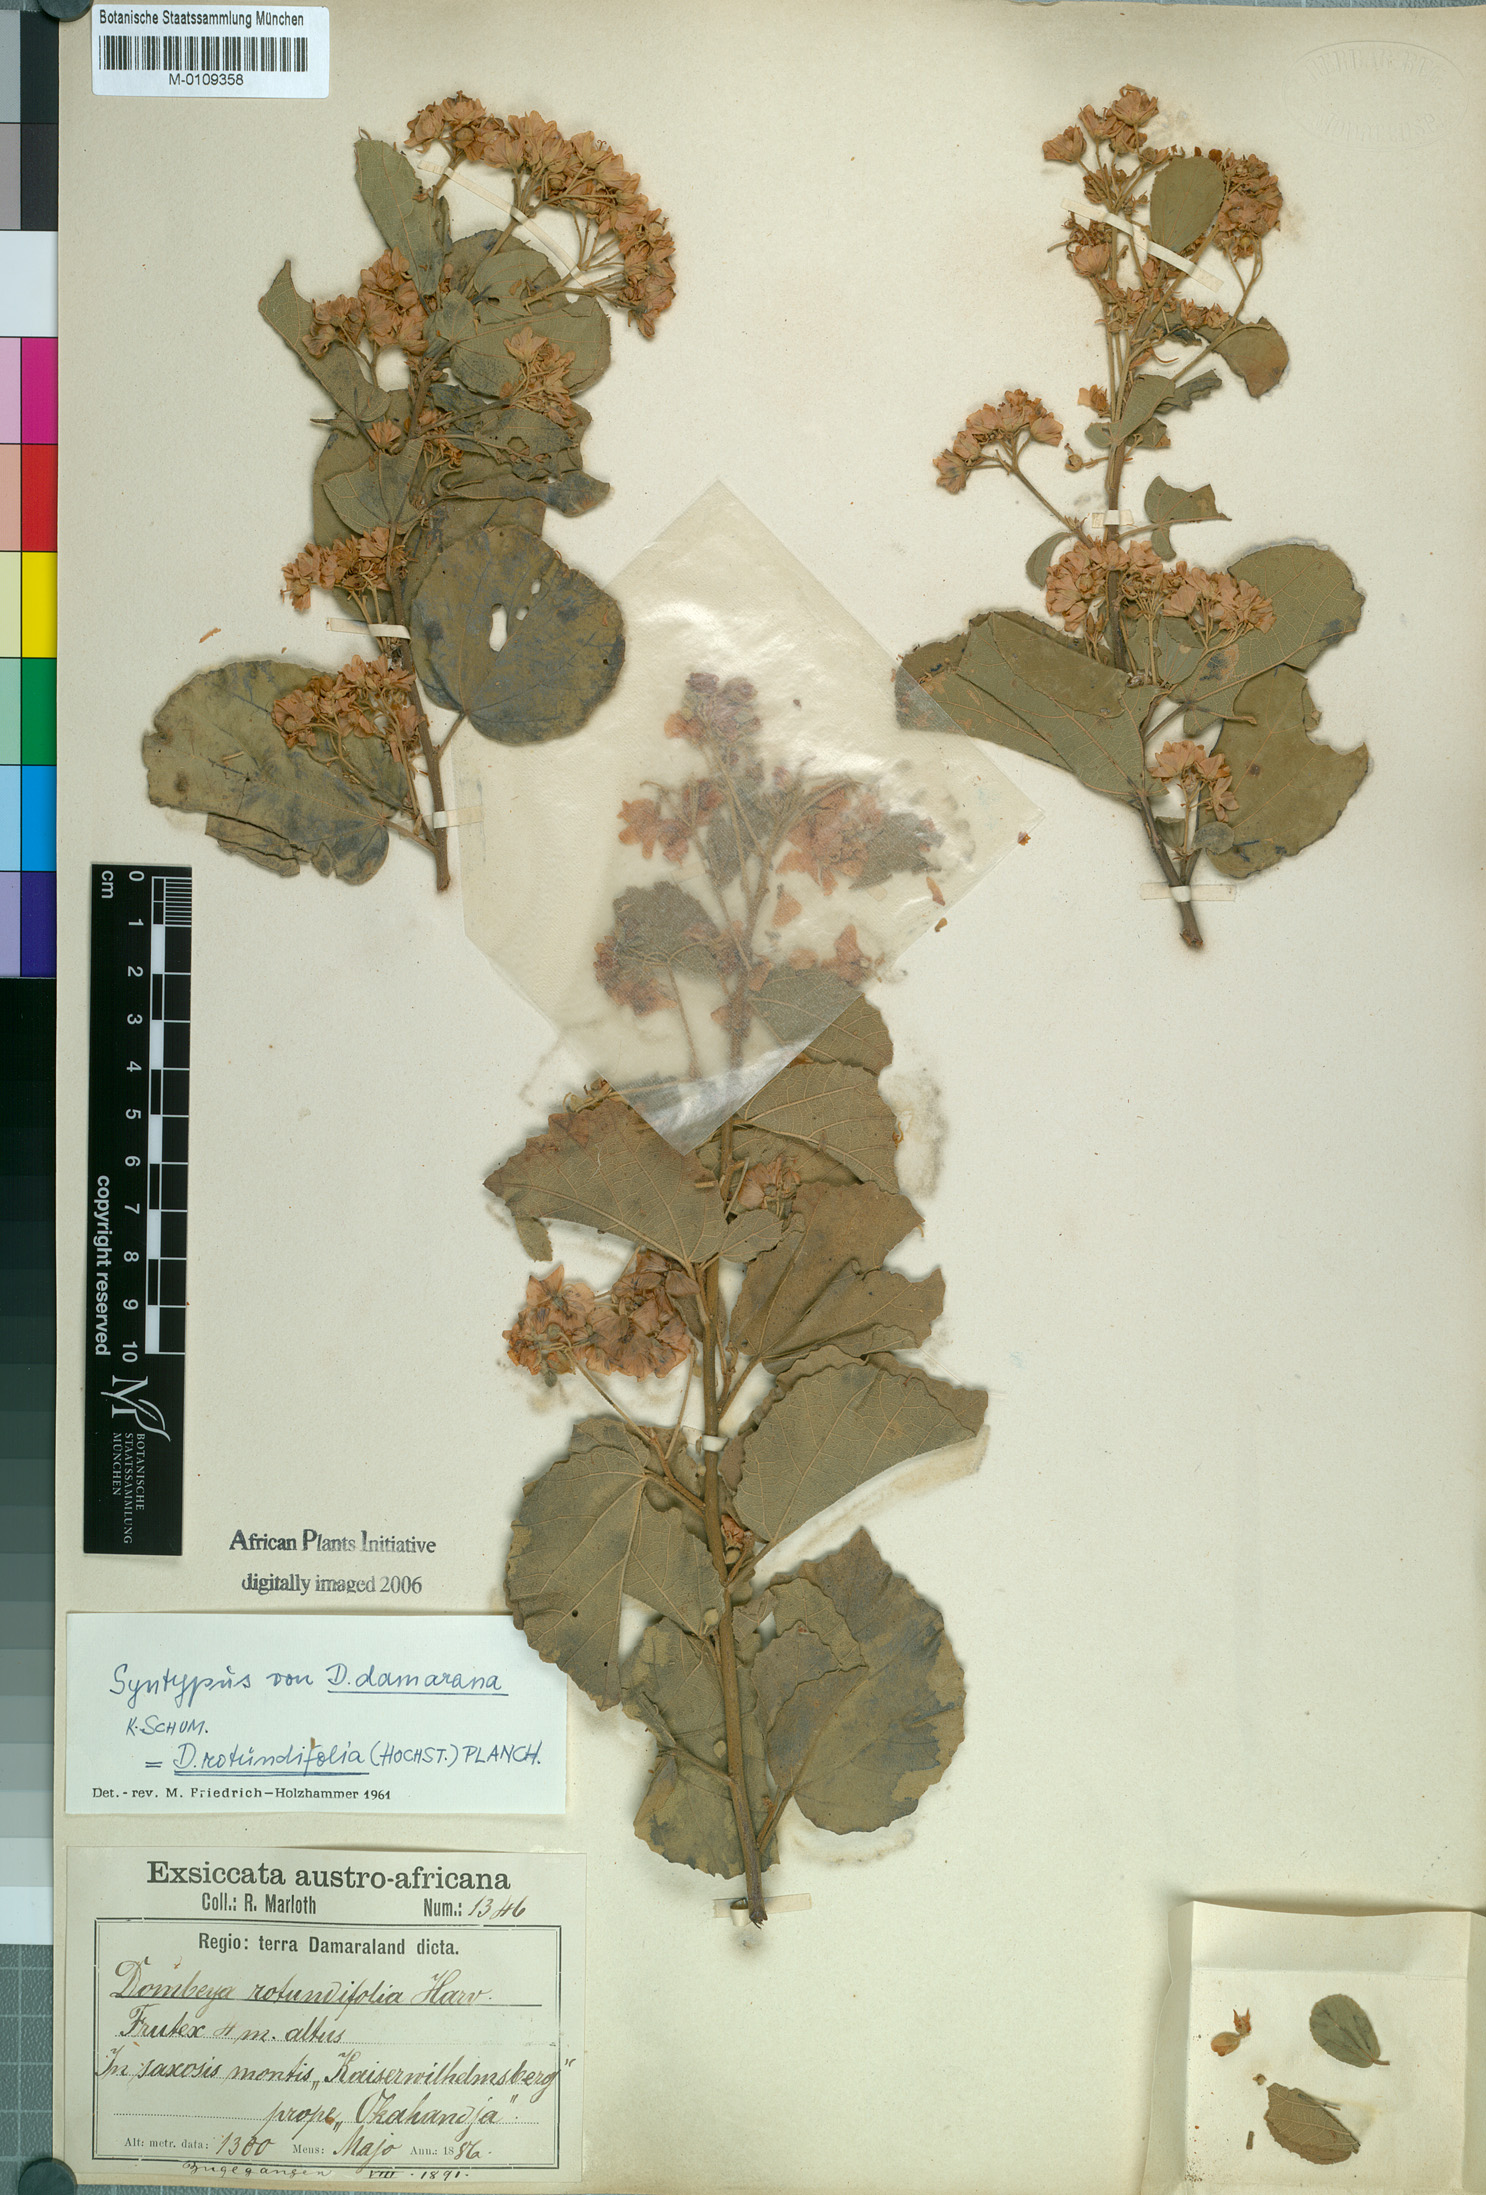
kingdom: Plantae
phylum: Tracheophyta
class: Magnoliopsida
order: Malvales
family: Malvaceae
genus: Dombeya
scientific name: Dombeya rotundifolia
